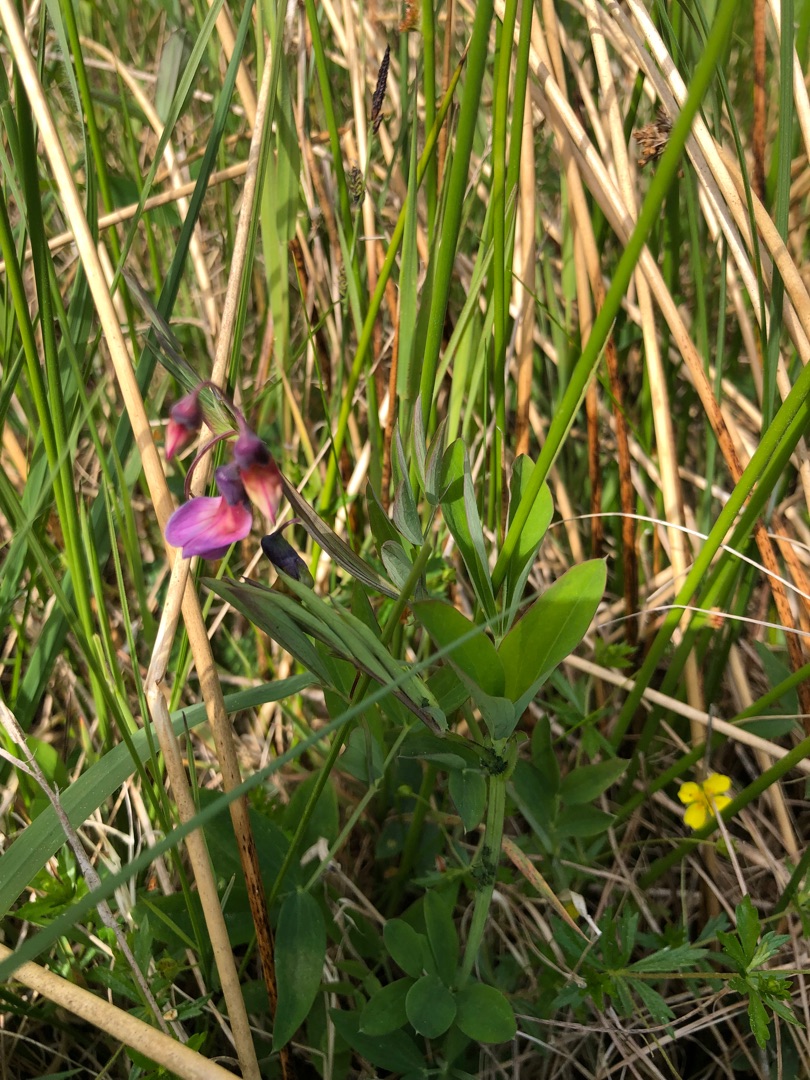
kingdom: Plantae
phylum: Tracheophyta
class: Magnoliopsida
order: Fabales
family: Fabaceae
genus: Lathyrus
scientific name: Lathyrus linifolius
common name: Krat-fladbælg
